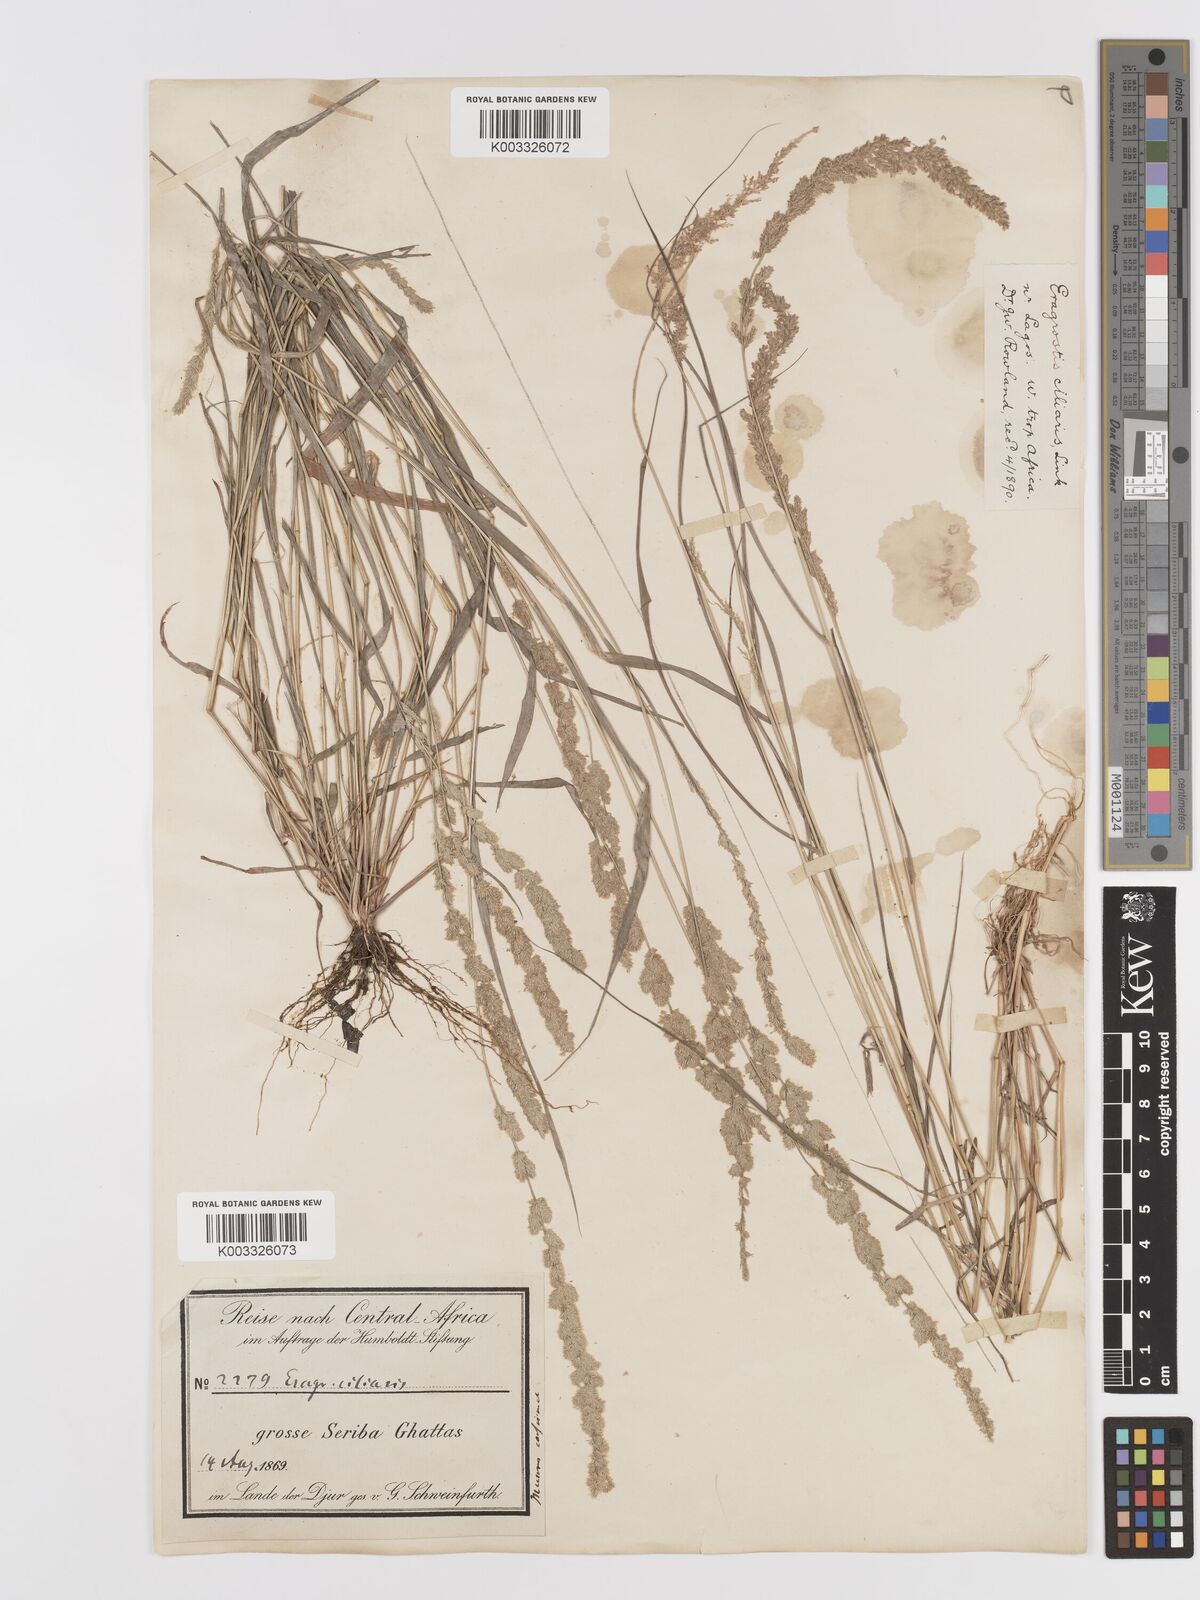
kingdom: Plantae
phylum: Tracheophyta
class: Liliopsida
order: Poales
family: Poaceae
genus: Eragrostis
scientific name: Eragrostis ciliaris
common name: Gophertail lovegrass
